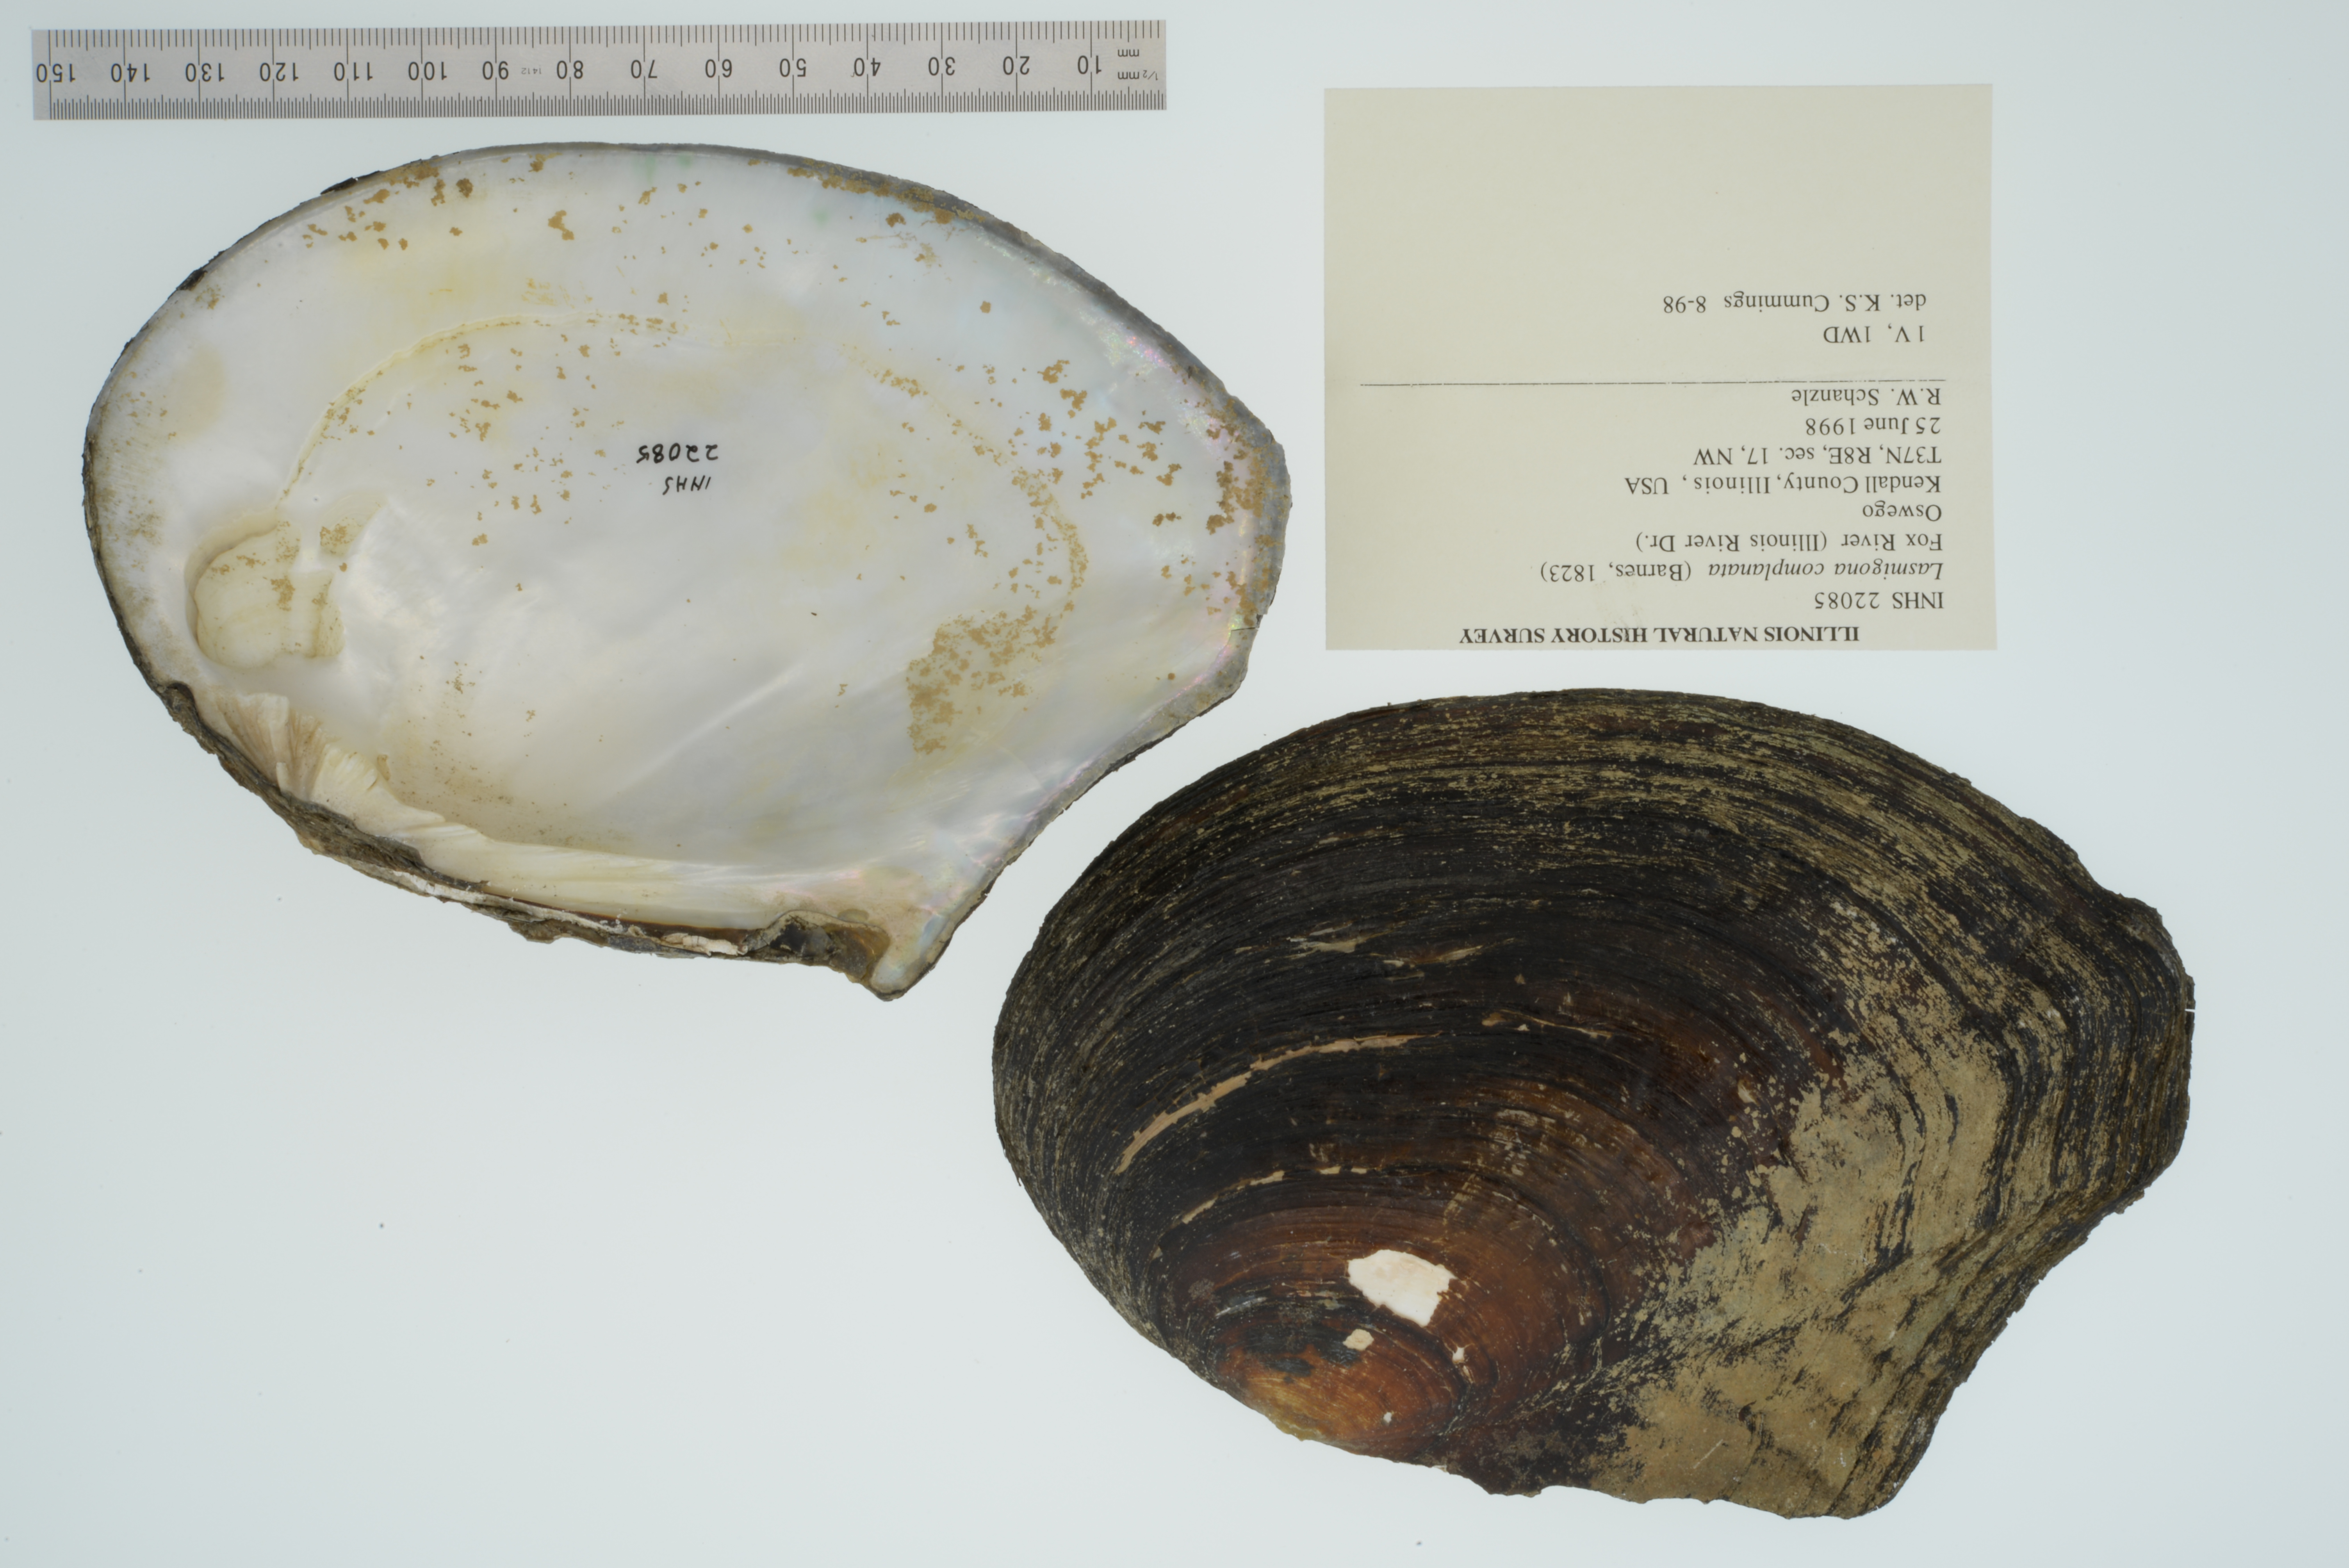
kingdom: Animalia
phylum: Mollusca
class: Bivalvia
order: Unionida
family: Unionidae
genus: Lasmigona
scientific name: Lasmigona complanata
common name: White heelsplitter
